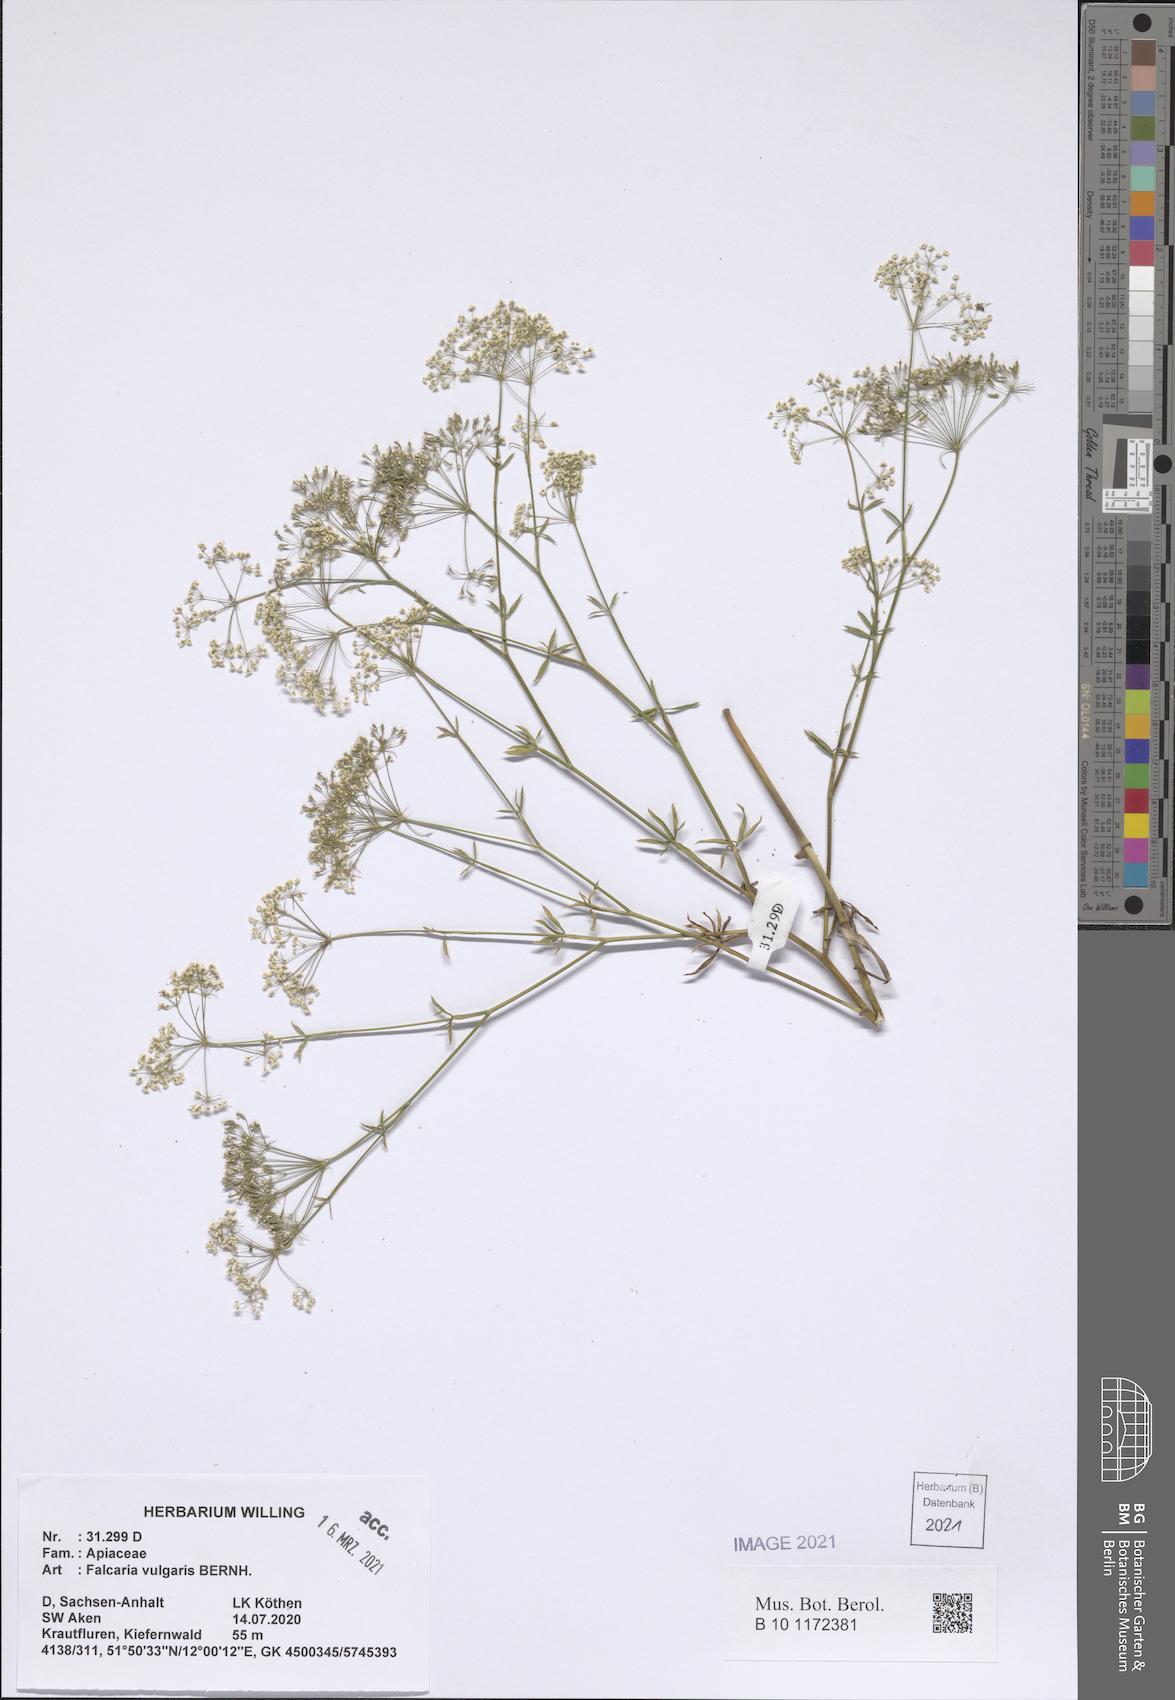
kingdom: Plantae
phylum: Tracheophyta
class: Magnoliopsida
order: Apiales
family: Apiaceae
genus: Falcaria
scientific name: Falcaria vulgaris
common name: Longleaf
